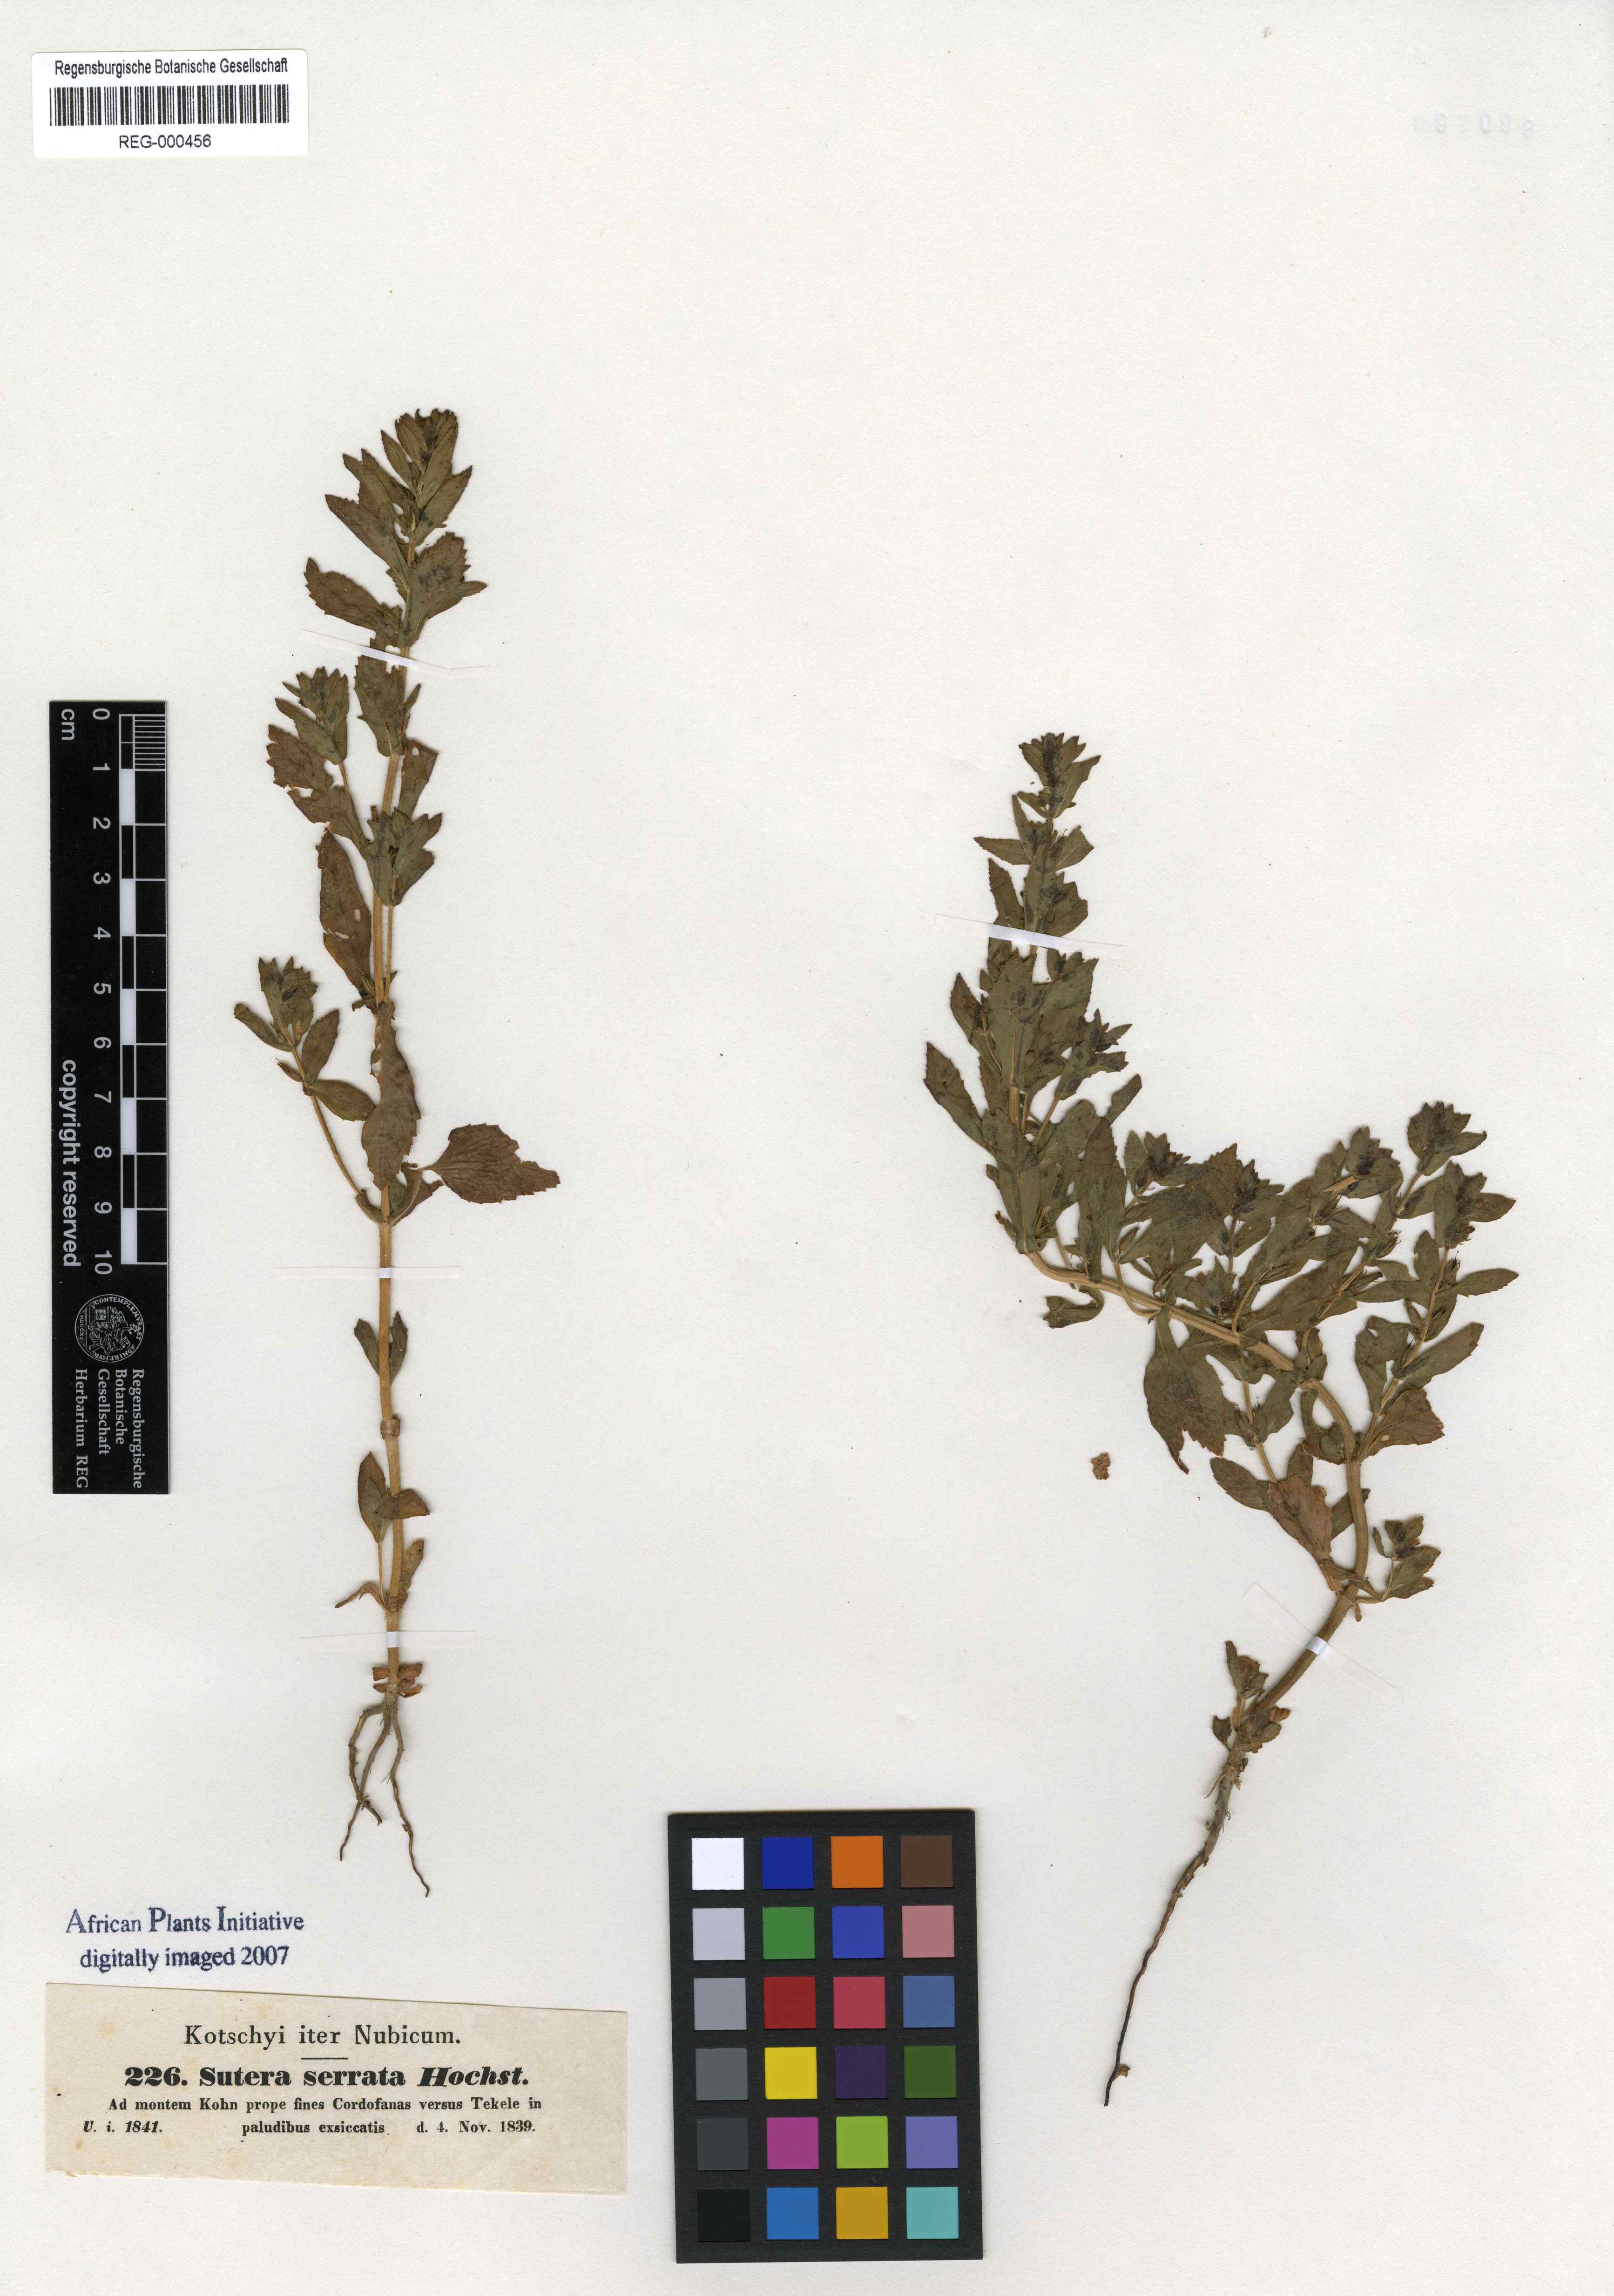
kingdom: Plantae
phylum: Tracheophyta
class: Magnoliopsida
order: Lamiales
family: Plantaginaceae
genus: Stemodia
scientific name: Stemodia serrata
